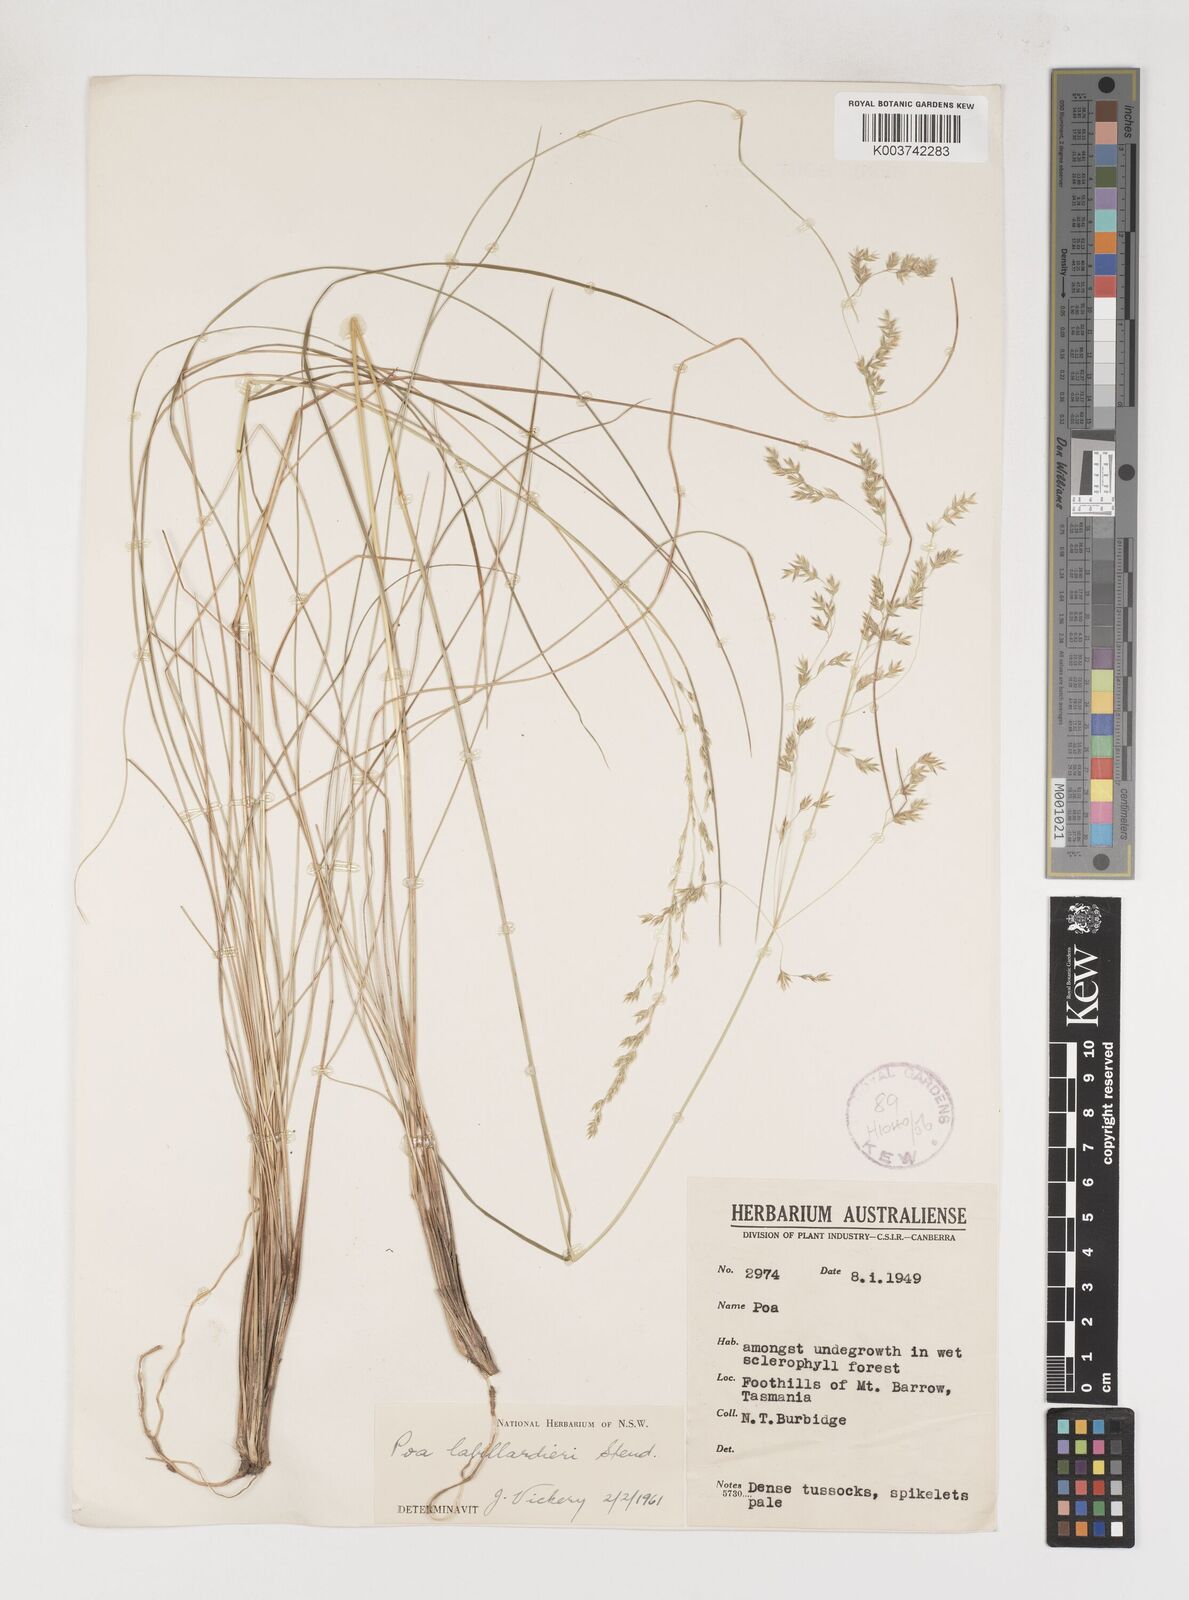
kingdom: Plantae
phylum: Tracheophyta
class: Liliopsida
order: Poales
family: Poaceae
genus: Poa
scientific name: Poa labillardierei
